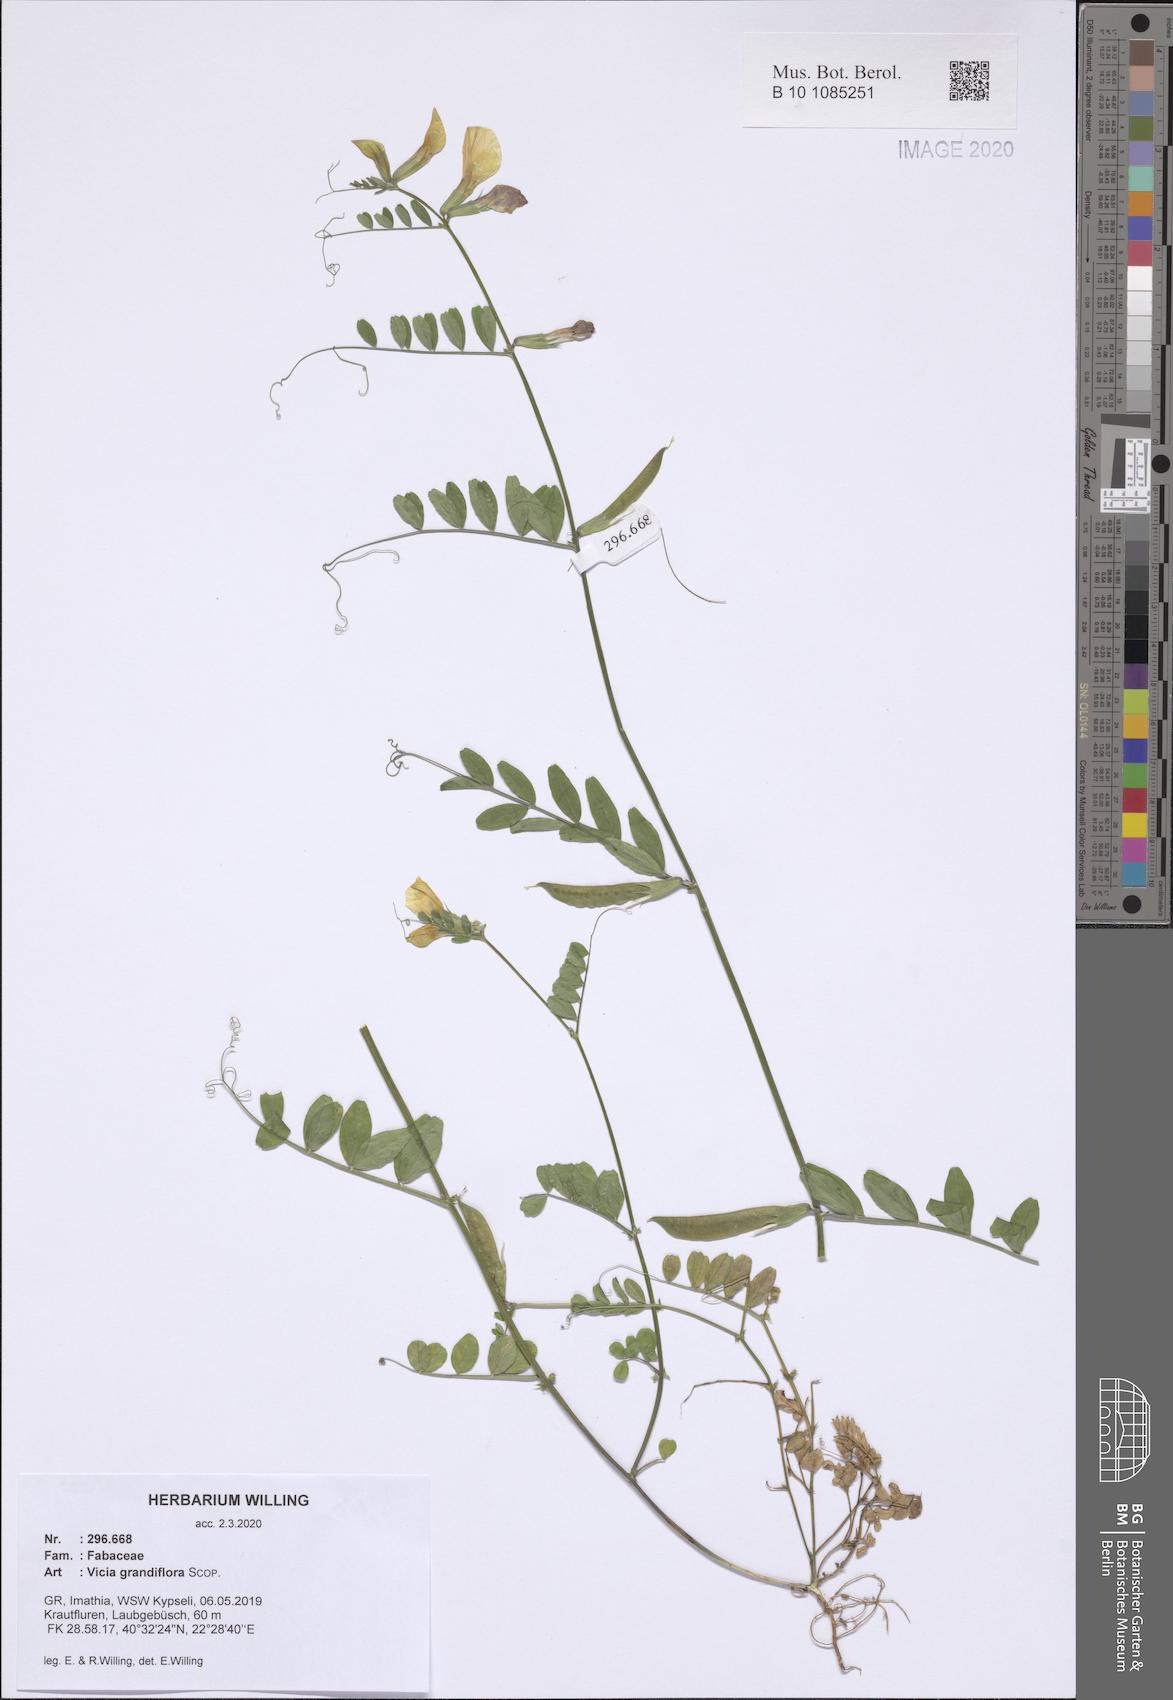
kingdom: Plantae
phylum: Tracheophyta
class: Magnoliopsida
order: Fabales
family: Fabaceae
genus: Vicia
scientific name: Vicia grandiflora
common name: Large yellow vetch
